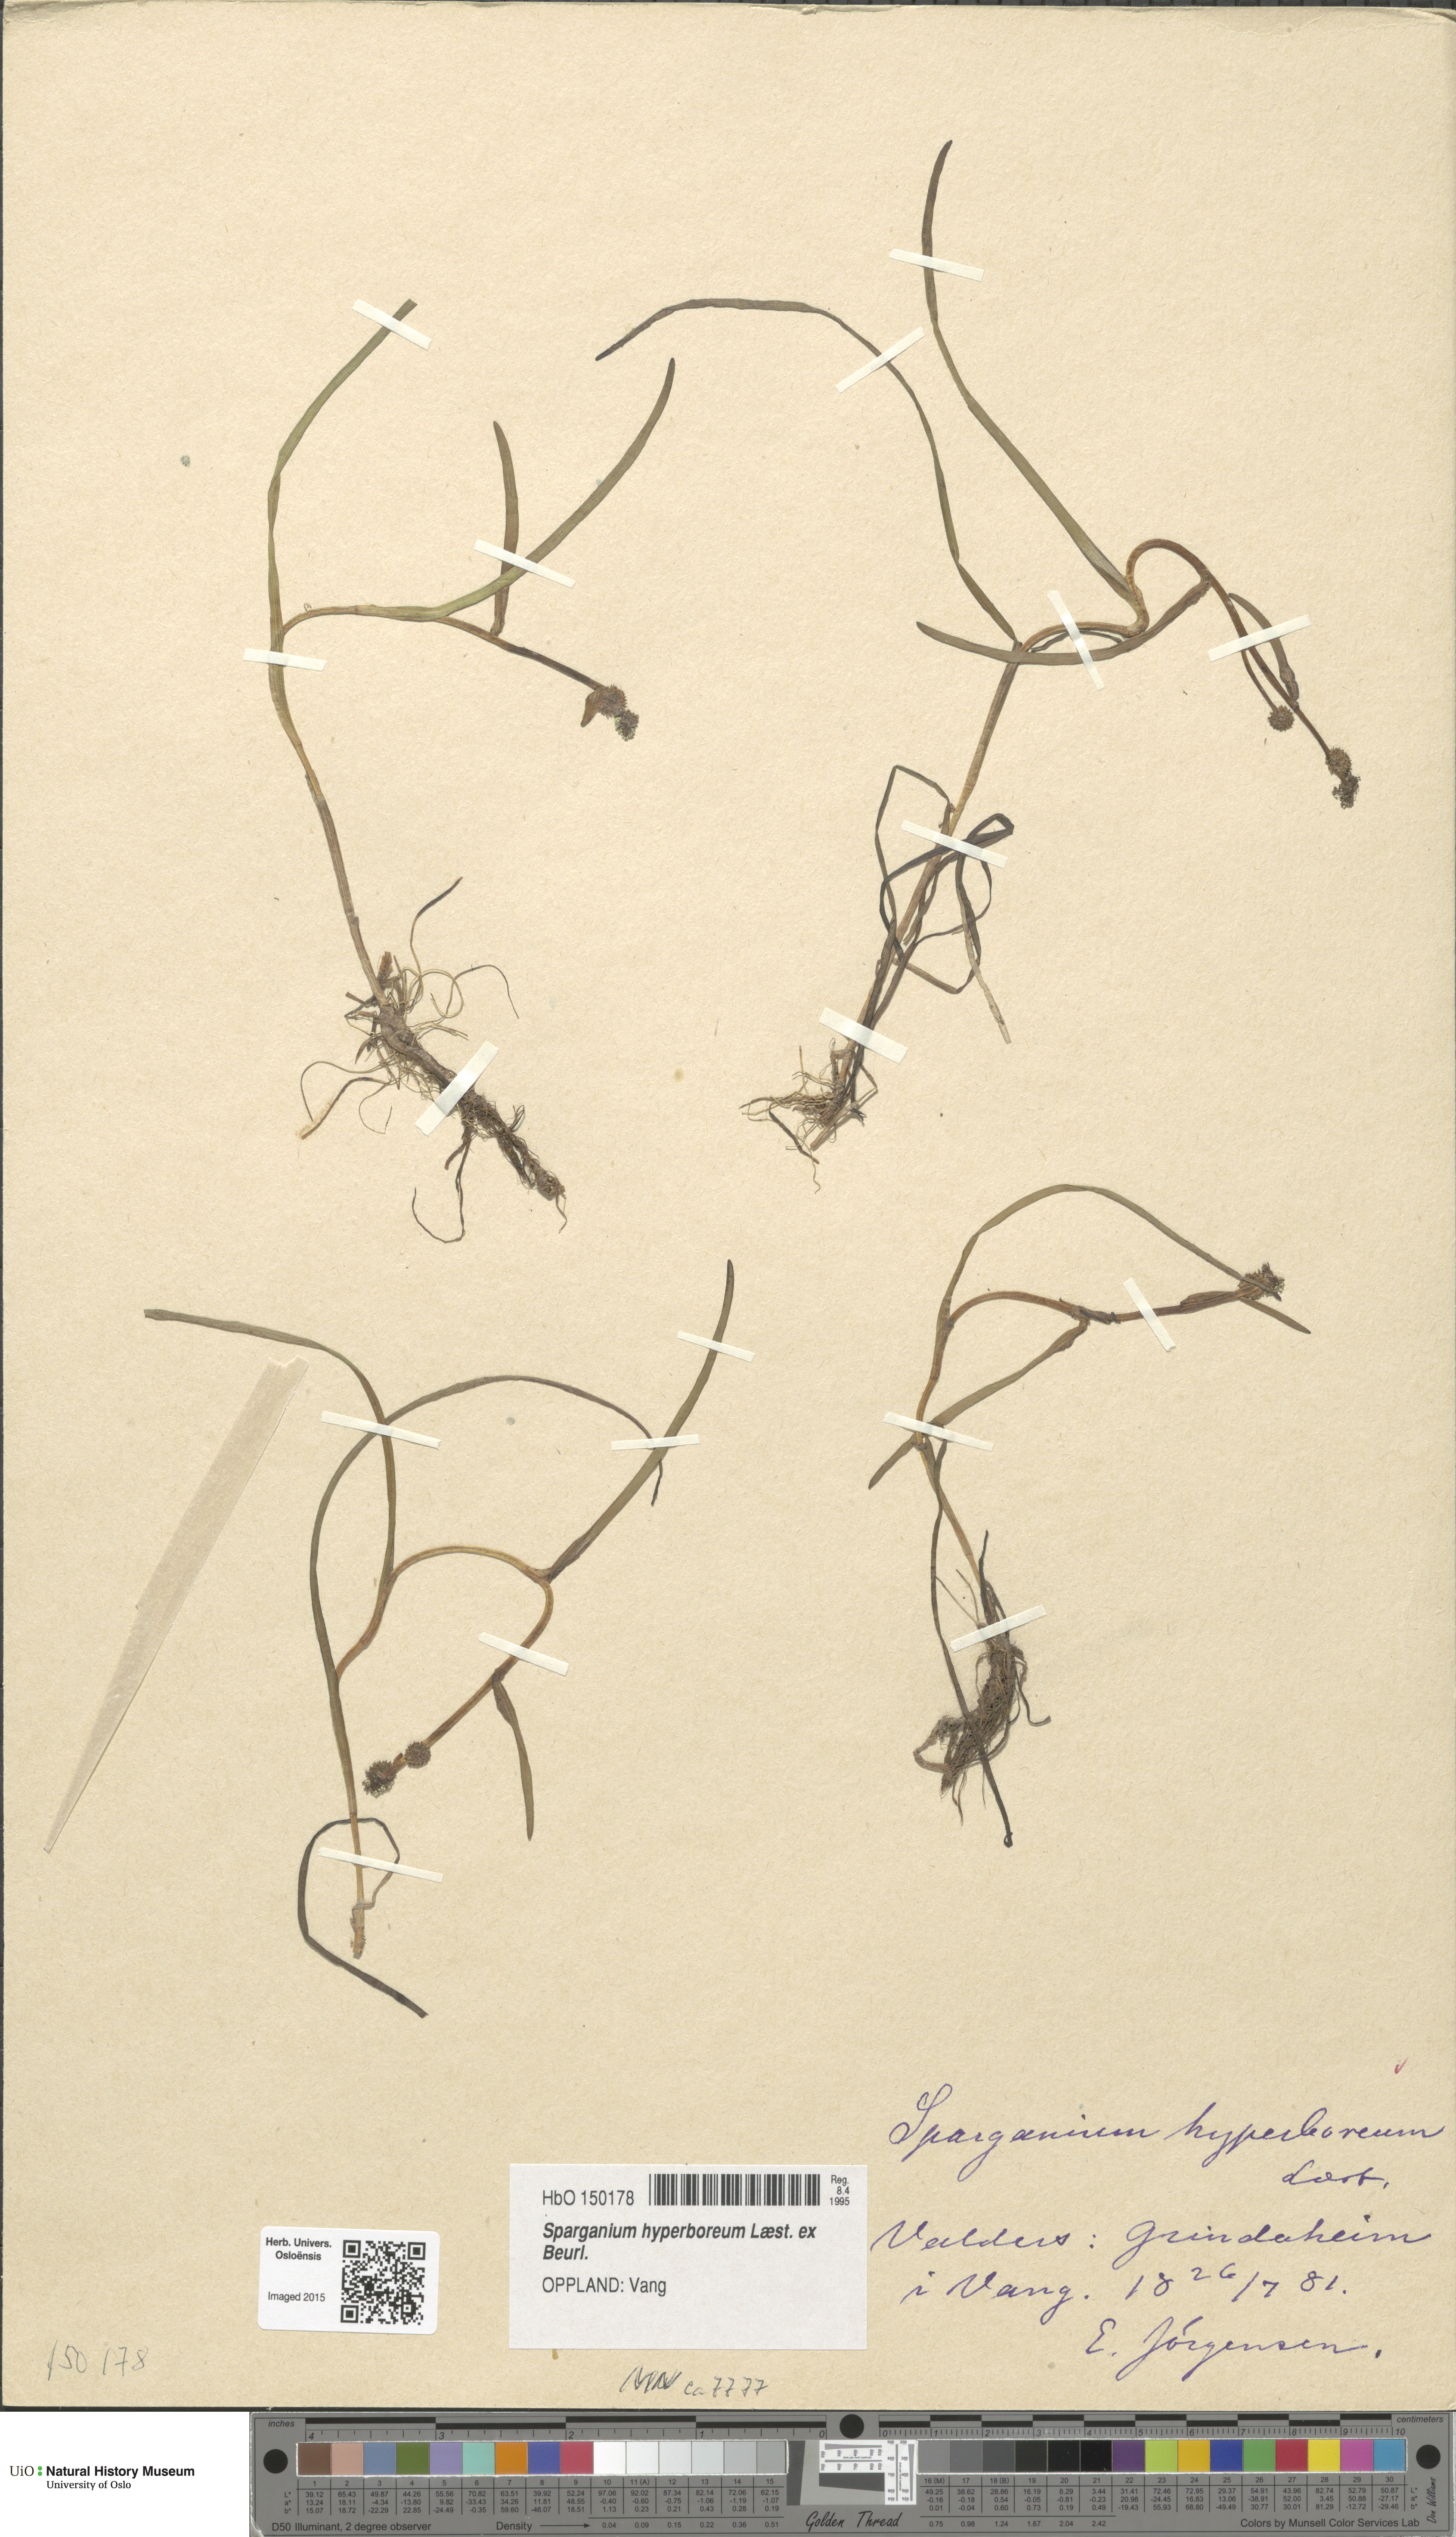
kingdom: Plantae
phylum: Tracheophyta
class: Liliopsida
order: Poales
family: Typhaceae
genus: Sparganium
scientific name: Sparganium hyperboreum
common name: Arctic burreed
